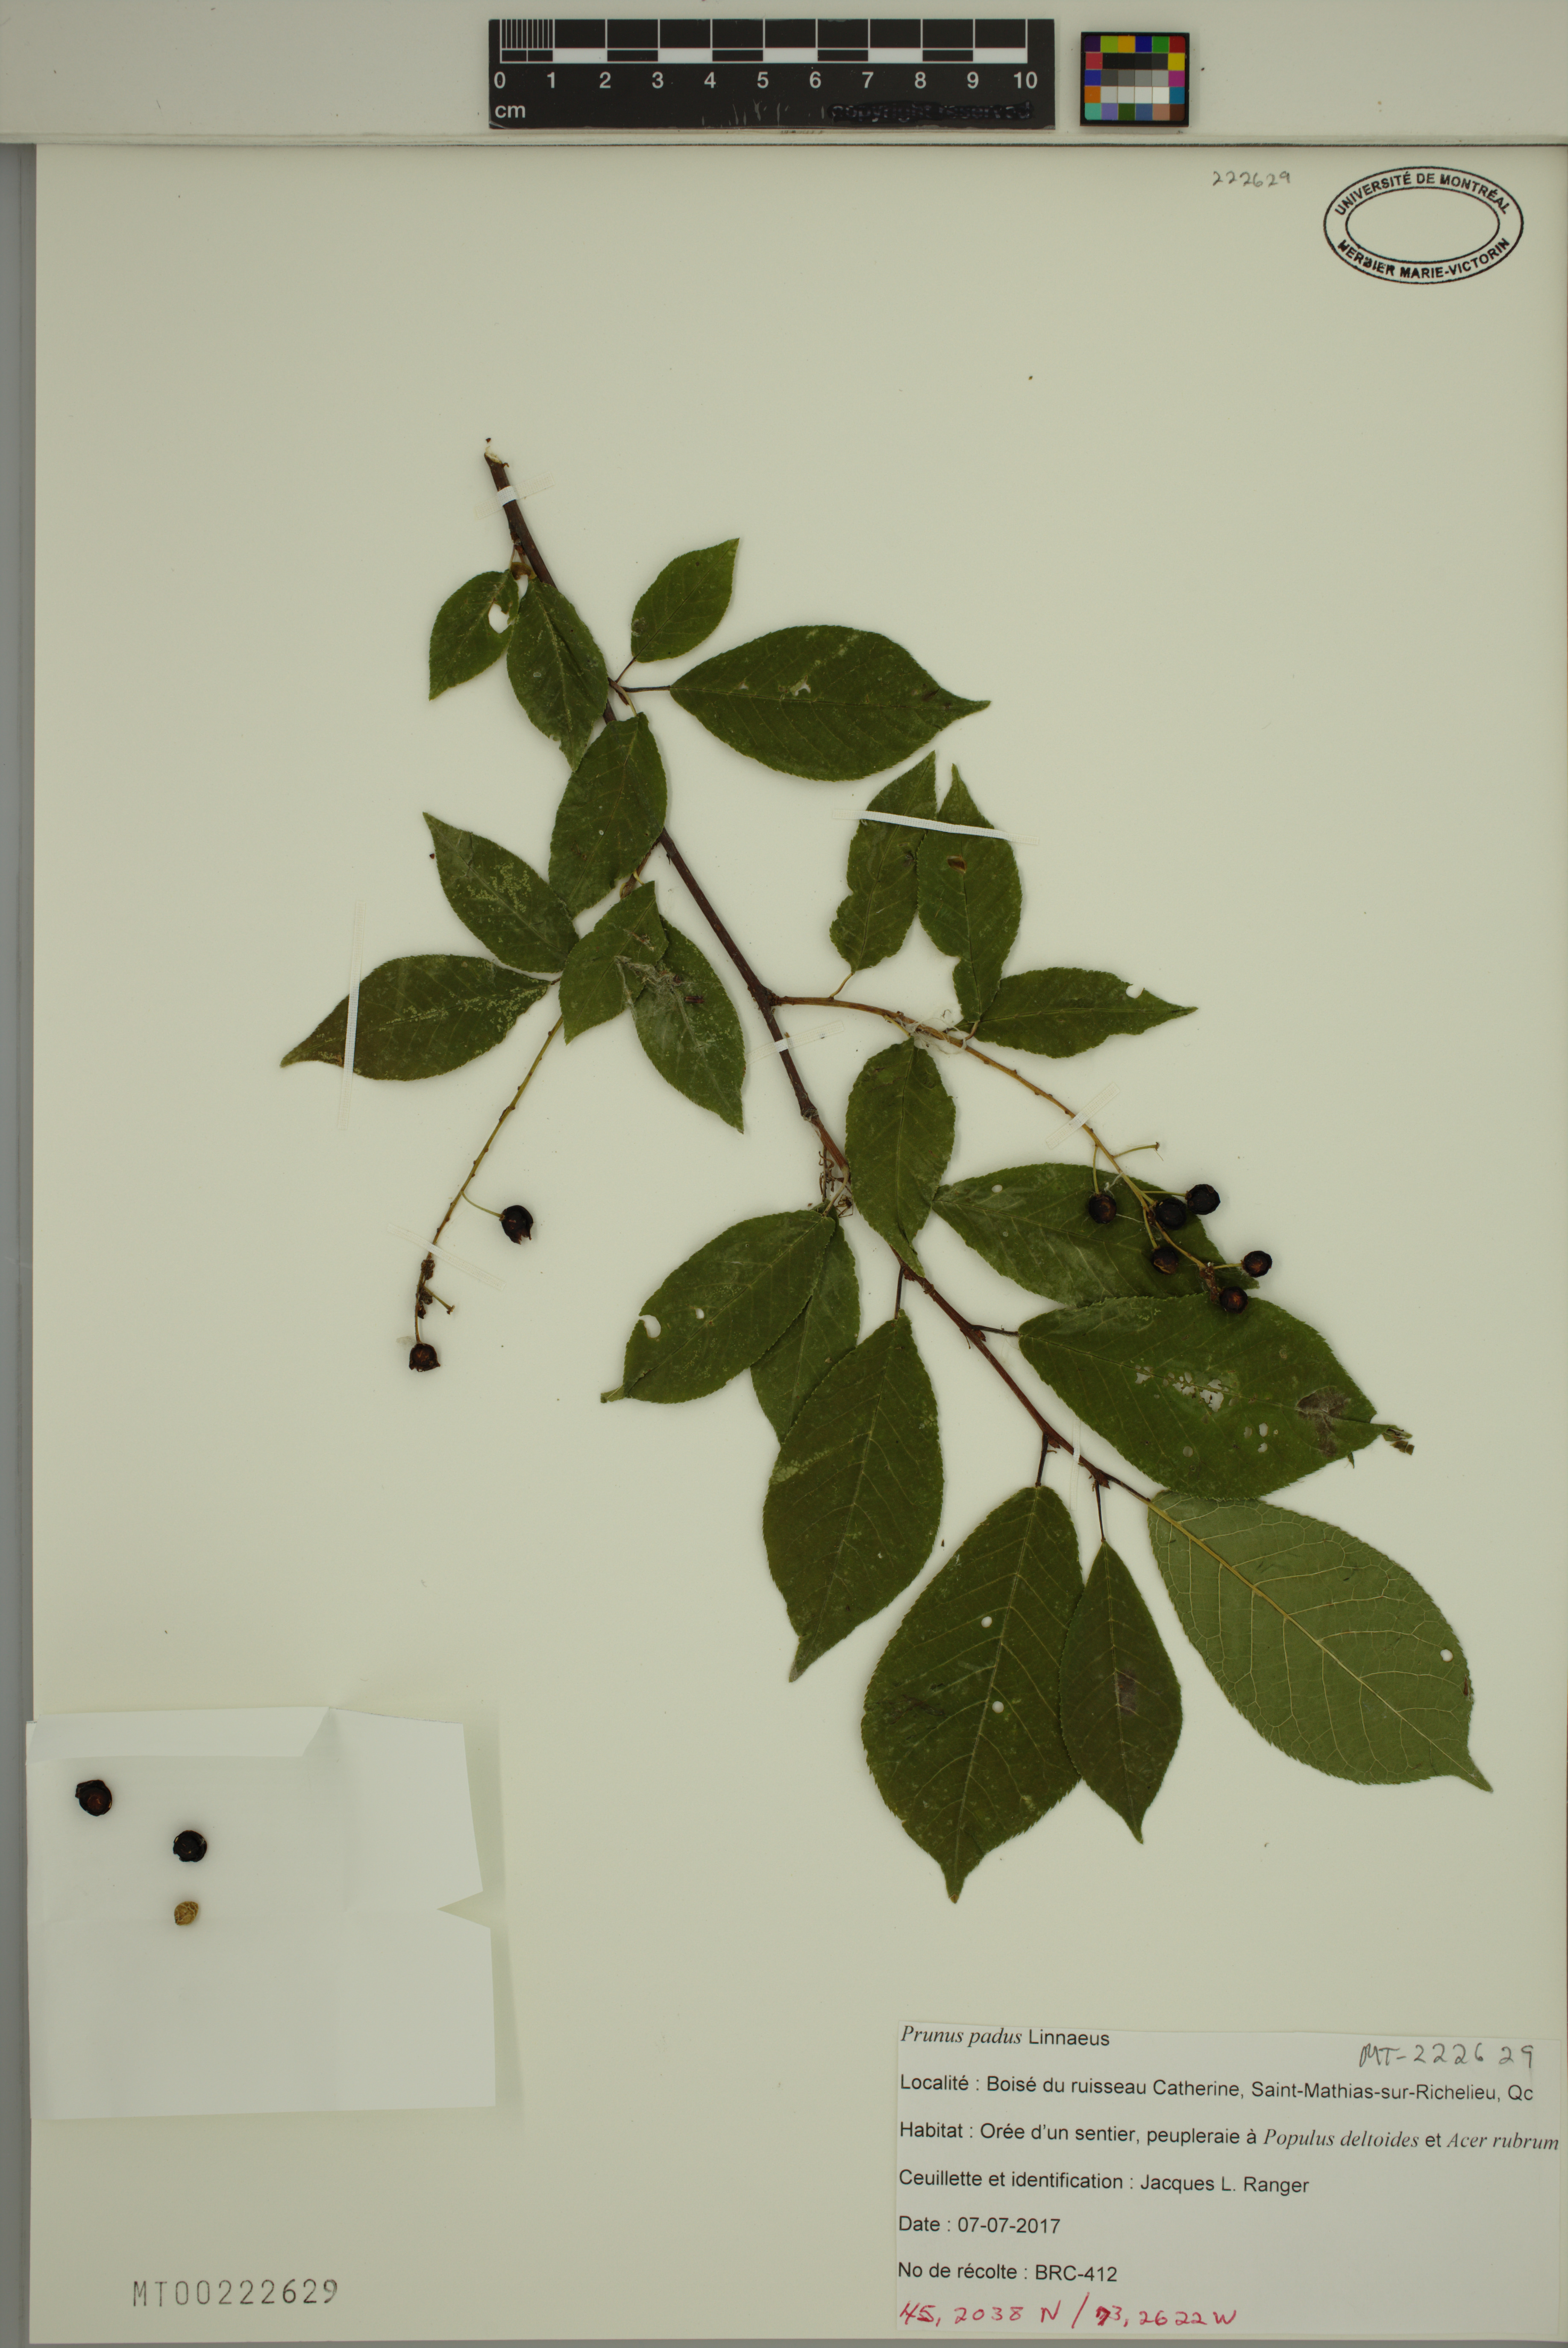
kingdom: Plantae
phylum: Tracheophyta
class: Magnoliopsida
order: Rosales
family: Rosaceae
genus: Prunus
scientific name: Prunus padus
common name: Bird cherry
